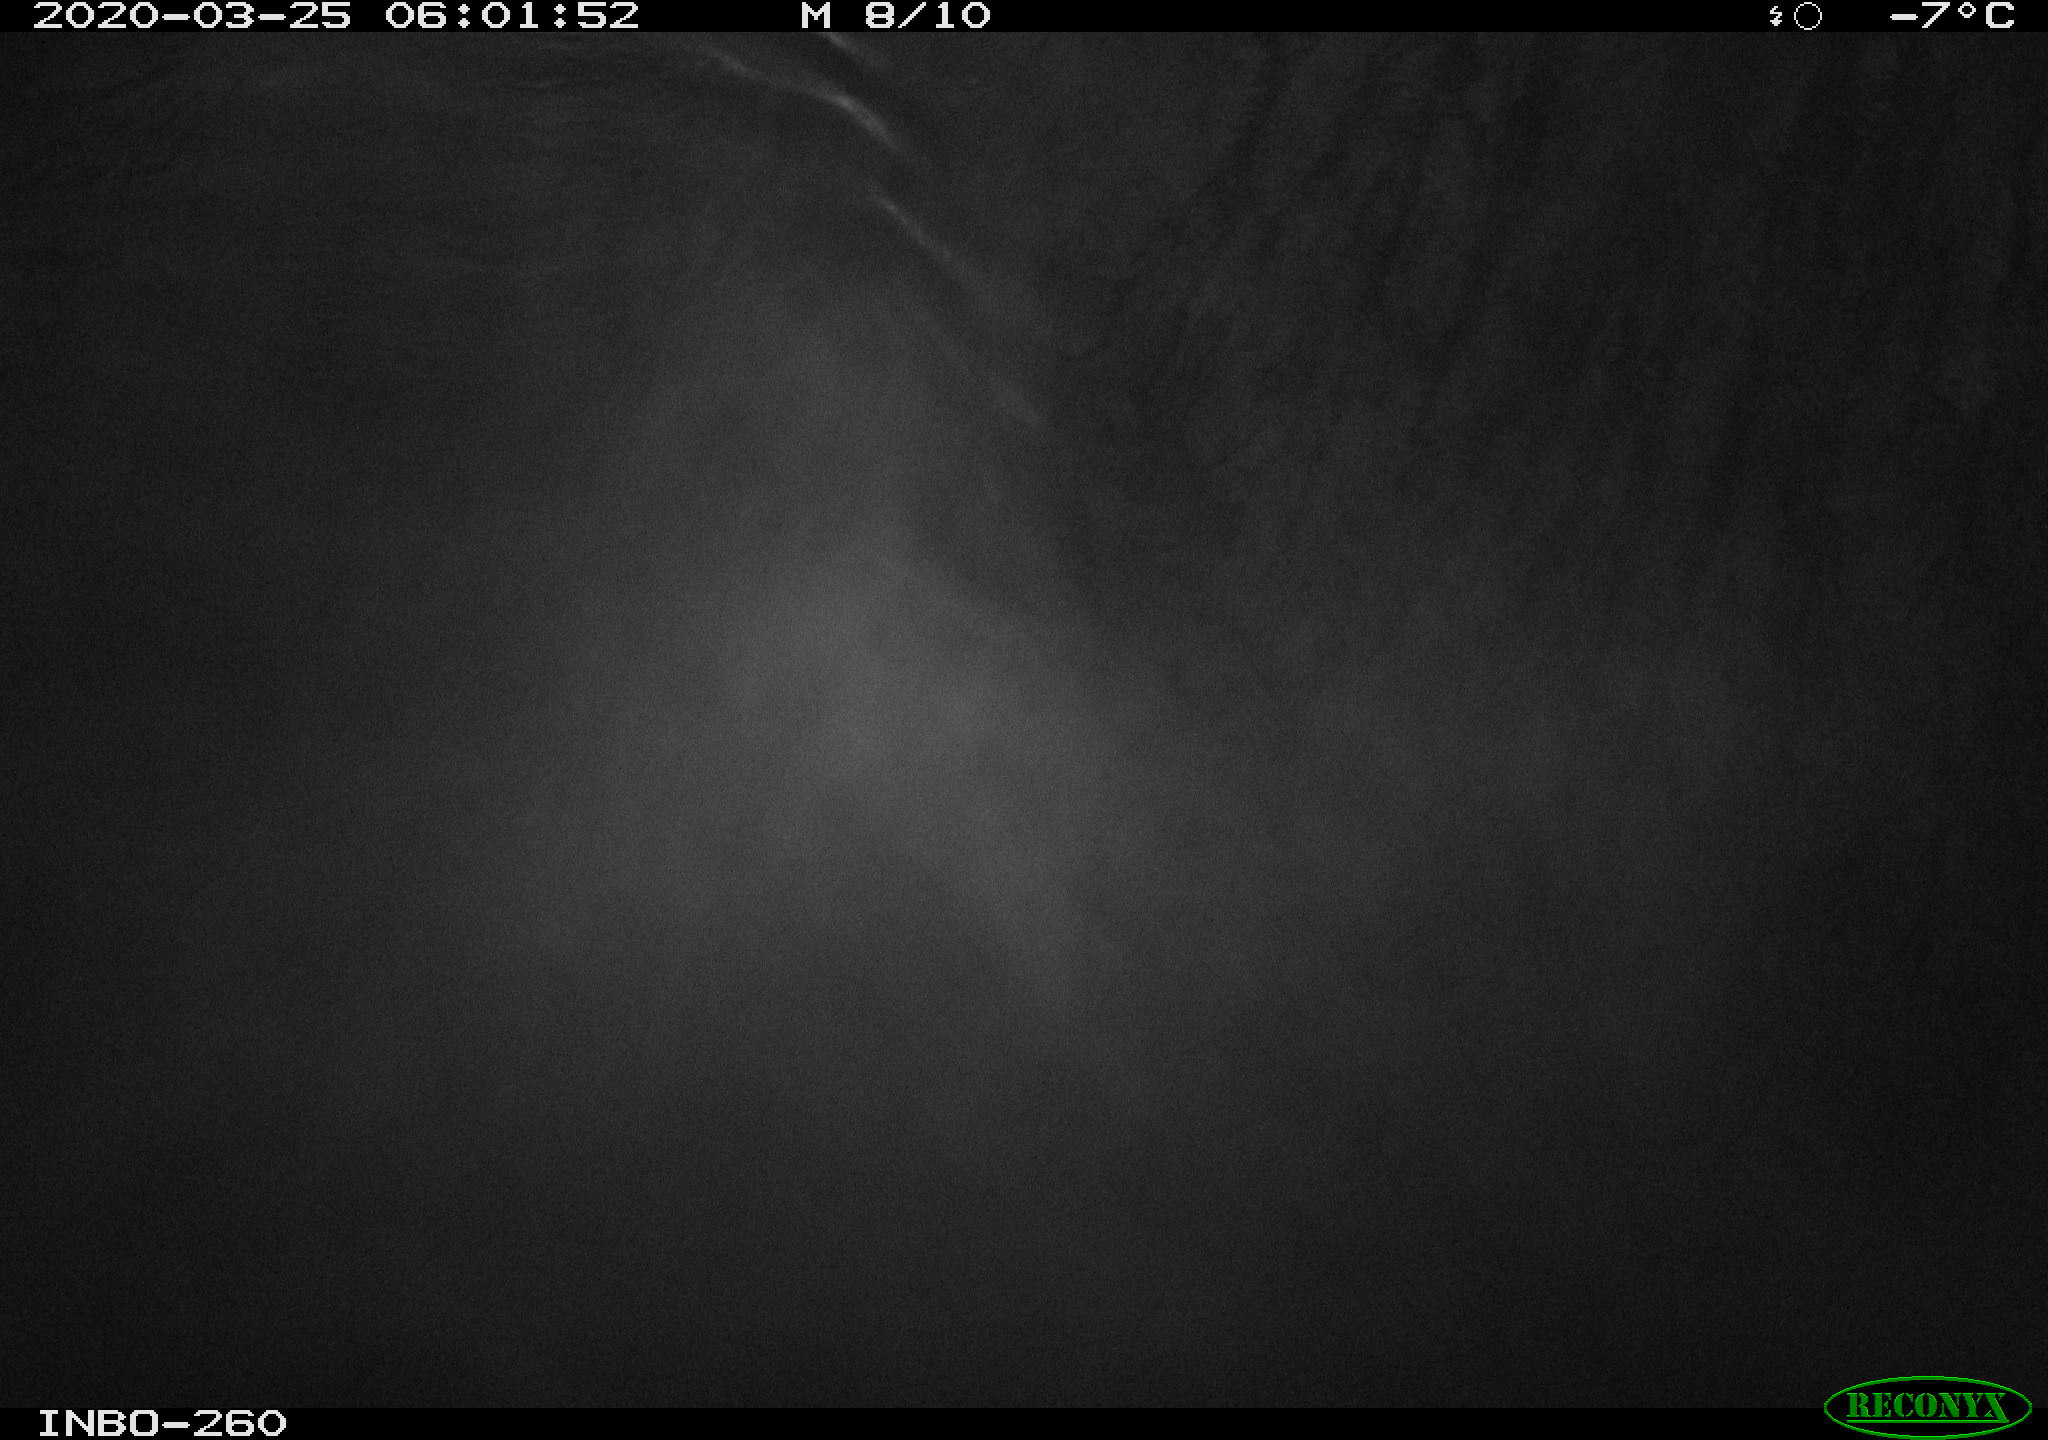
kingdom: Animalia
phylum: Chordata
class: Aves
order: Anseriformes
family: Anatidae
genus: Anas
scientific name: Anas platyrhynchos
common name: Mallard
